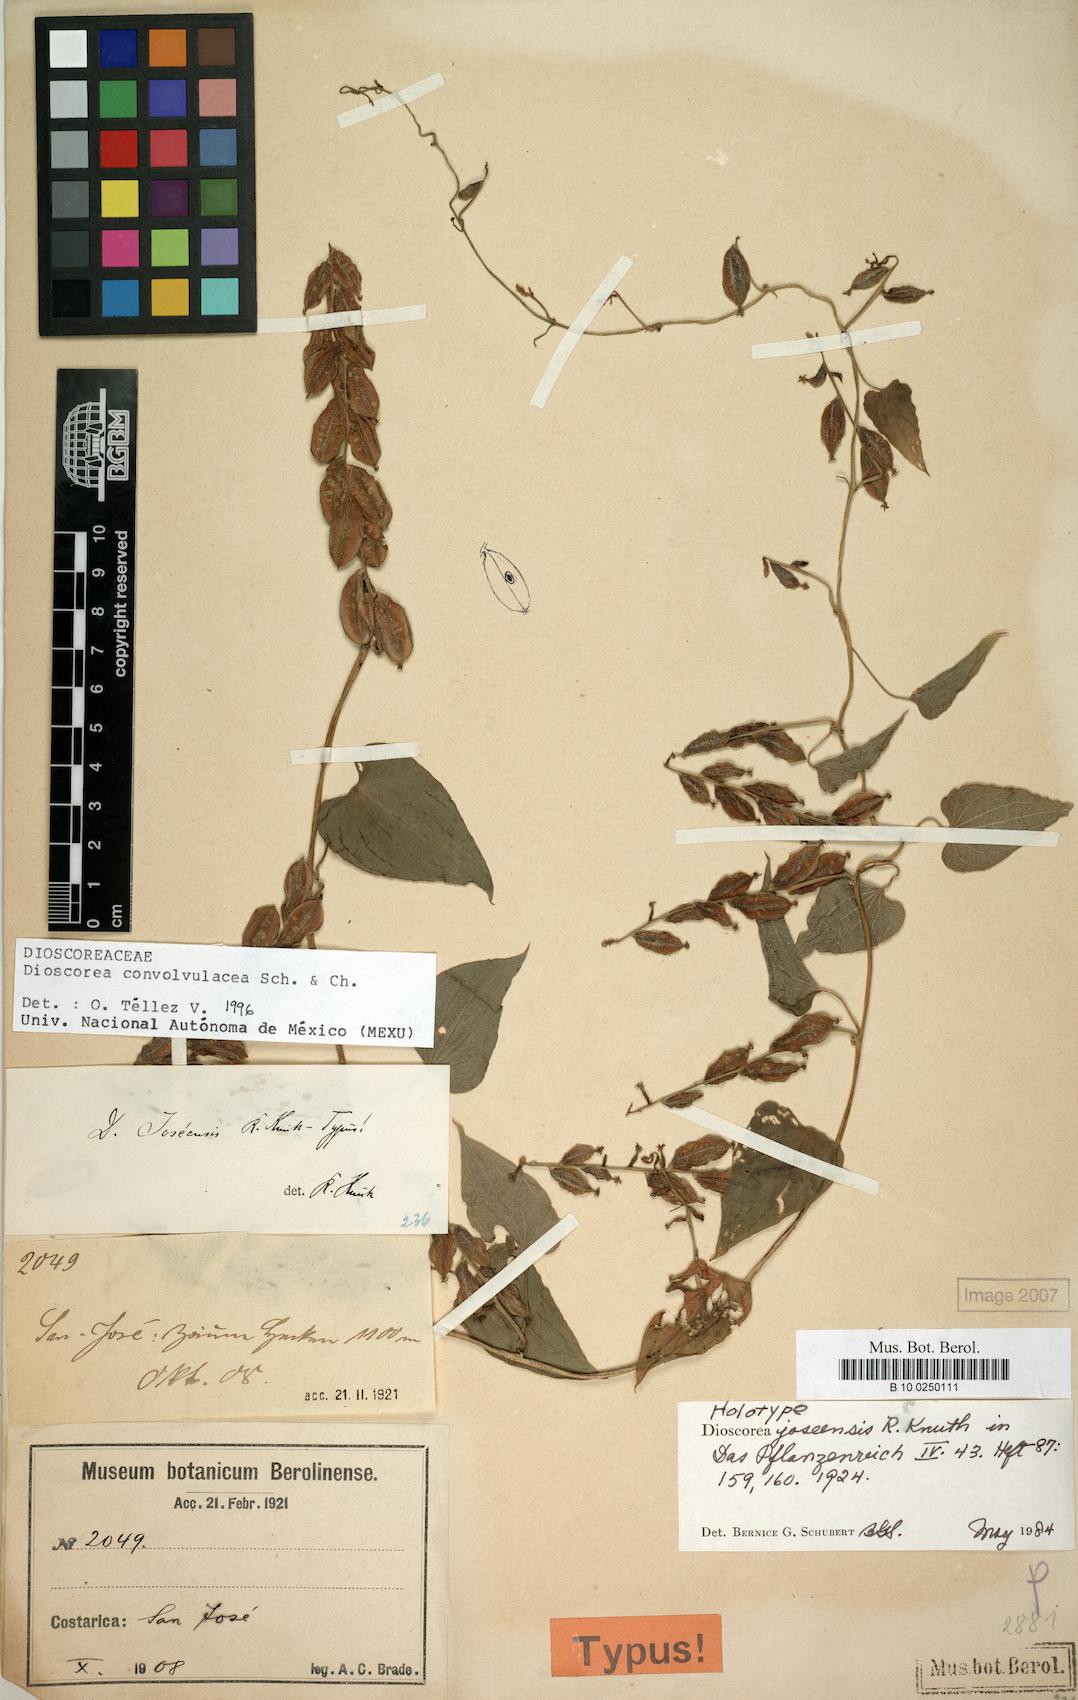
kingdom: Plantae
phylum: Tracheophyta
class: Liliopsida
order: Dioscoreales
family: Dioscoreaceae
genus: Dioscorea
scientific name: Dioscorea convolvulacea
